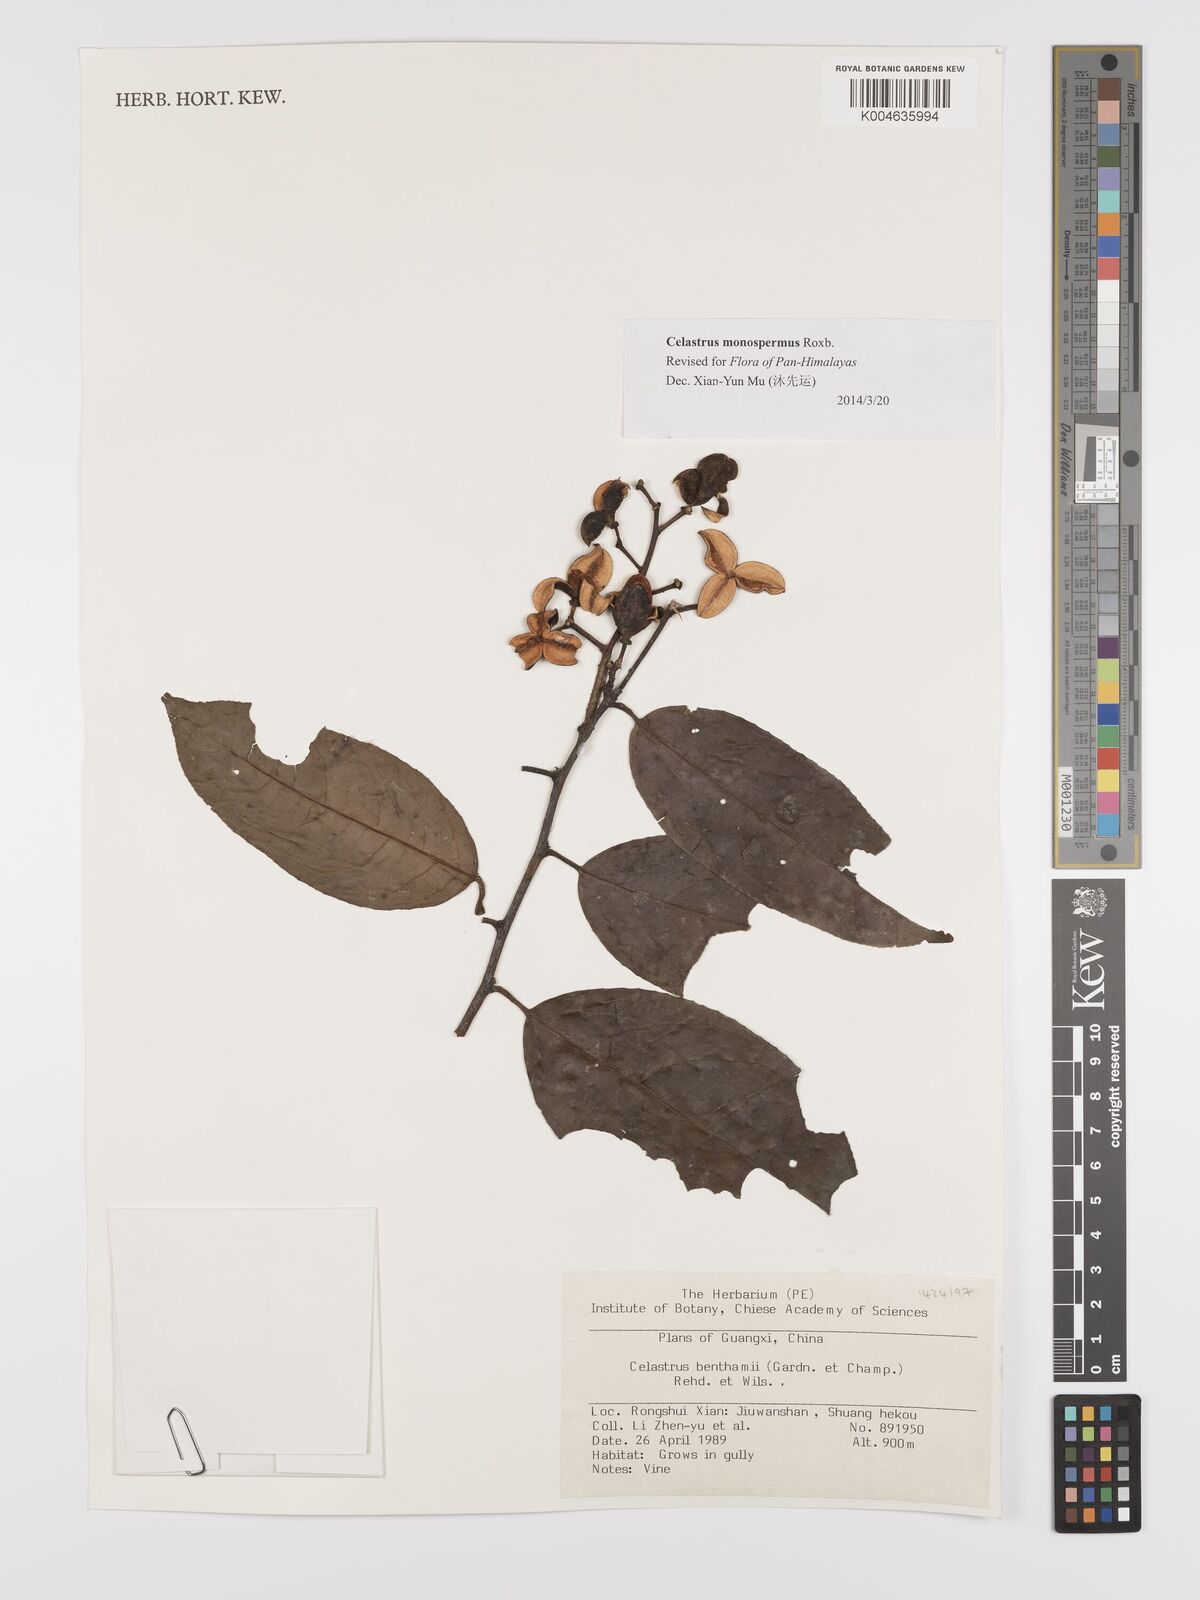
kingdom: Plantae
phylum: Tracheophyta
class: Magnoliopsida
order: Celastrales
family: Celastraceae
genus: Celastrus
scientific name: Celastrus monospermus
